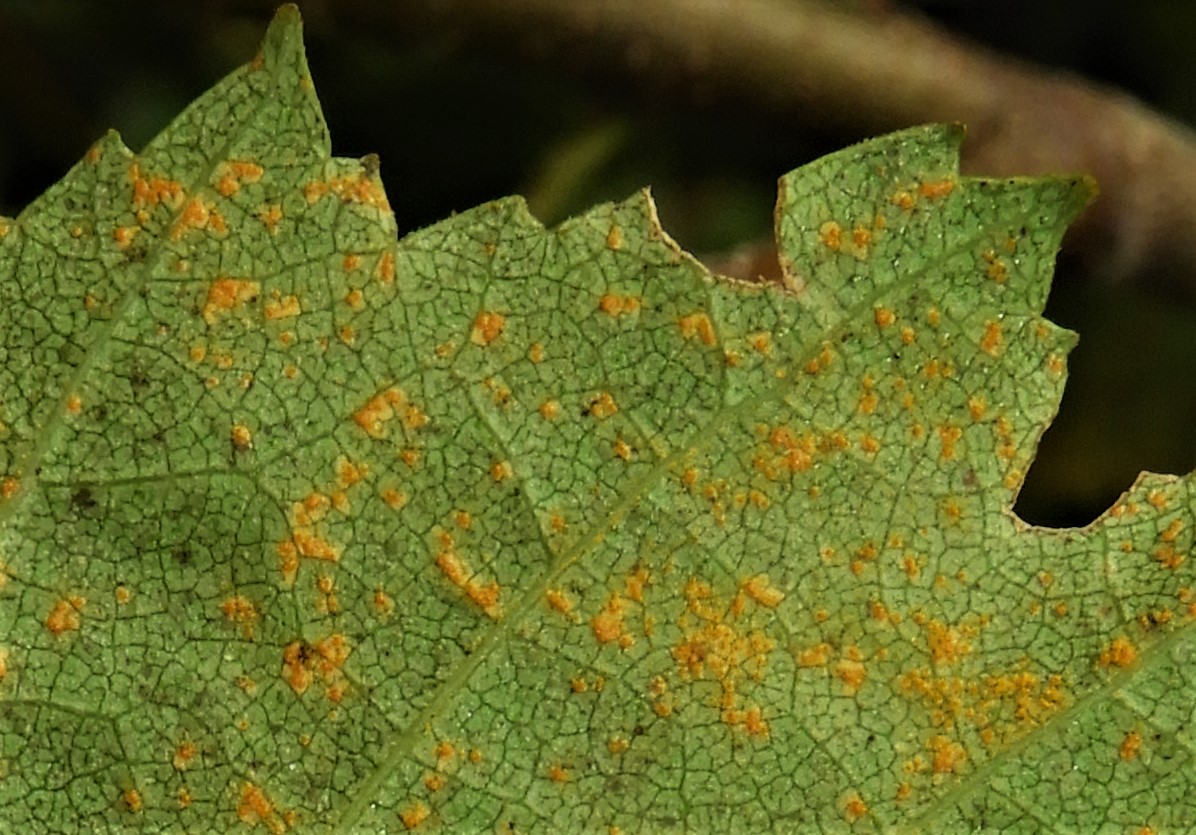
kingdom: Fungi
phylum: Basidiomycota
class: Pucciniomycetes
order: Pucciniales
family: Pucciniastraceae
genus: Melampsoridium
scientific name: Melampsoridium betulinum
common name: Birch rust
